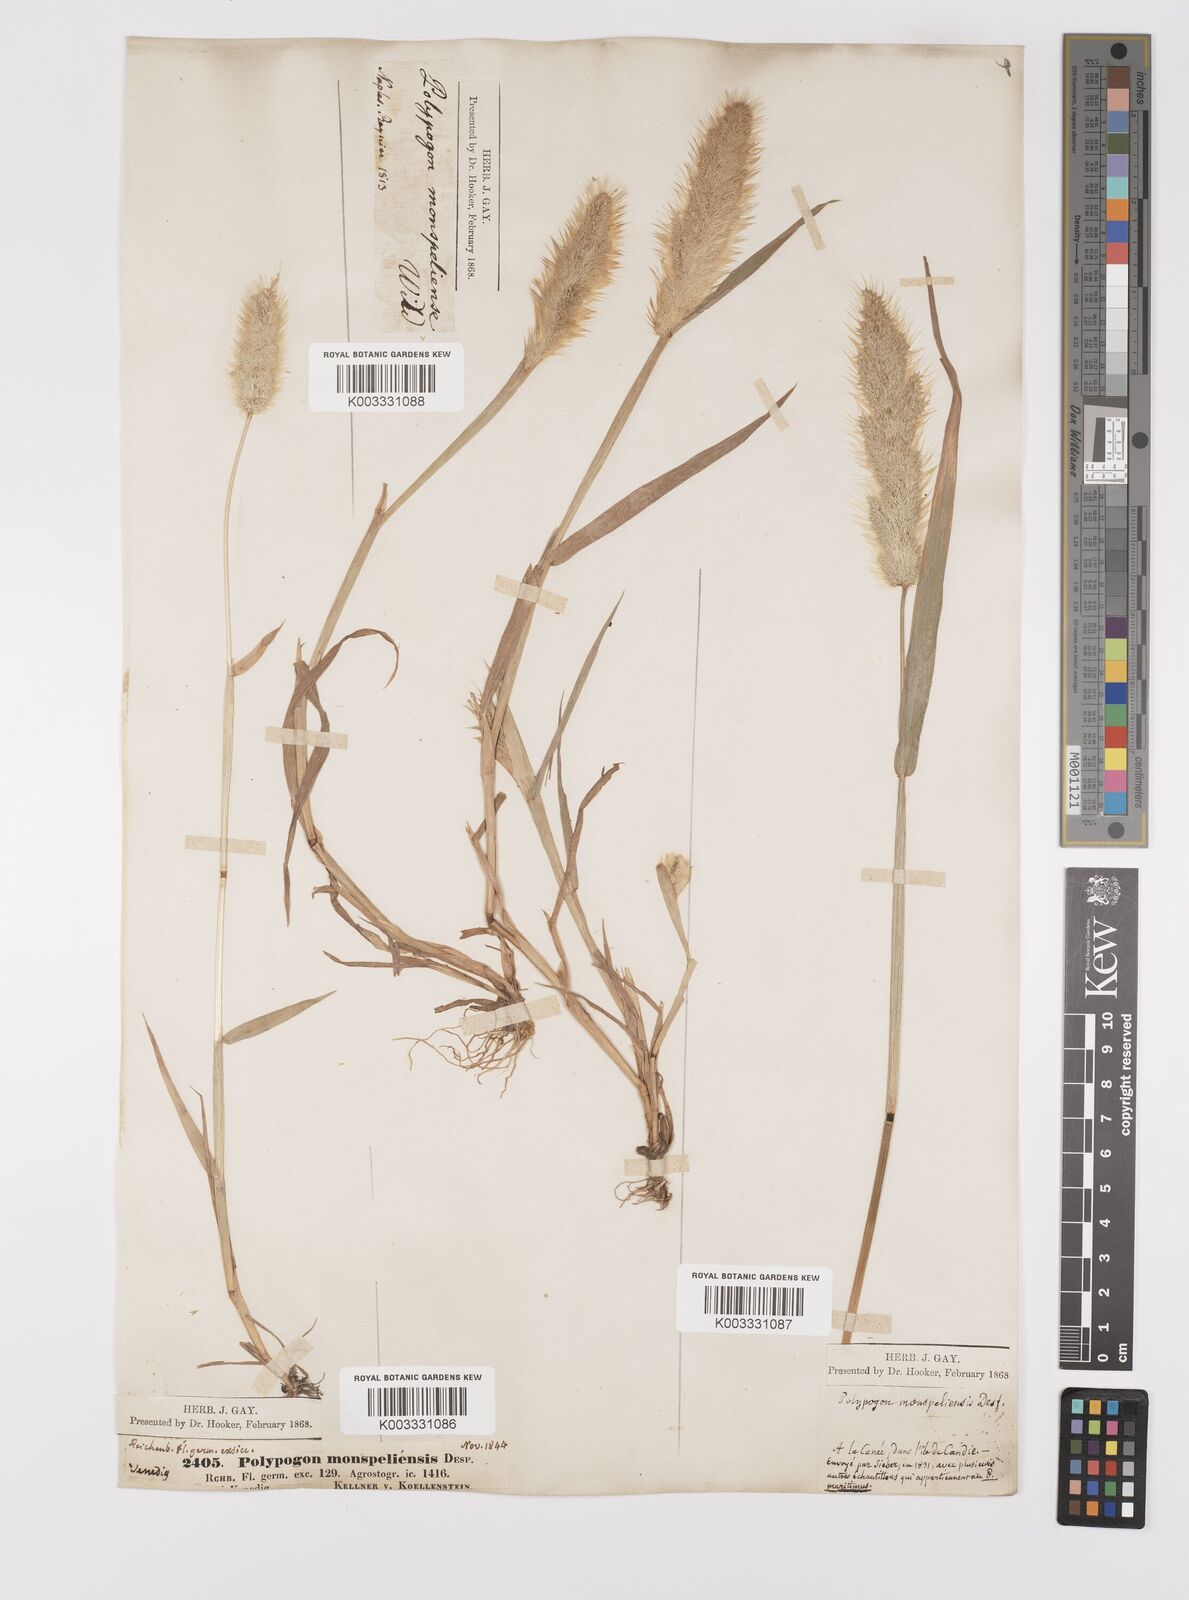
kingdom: Plantae
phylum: Tracheophyta
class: Liliopsida
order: Poales
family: Poaceae
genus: Polypogon
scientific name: Polypogon monspeliensis
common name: Annual rabbitsfoot grass
